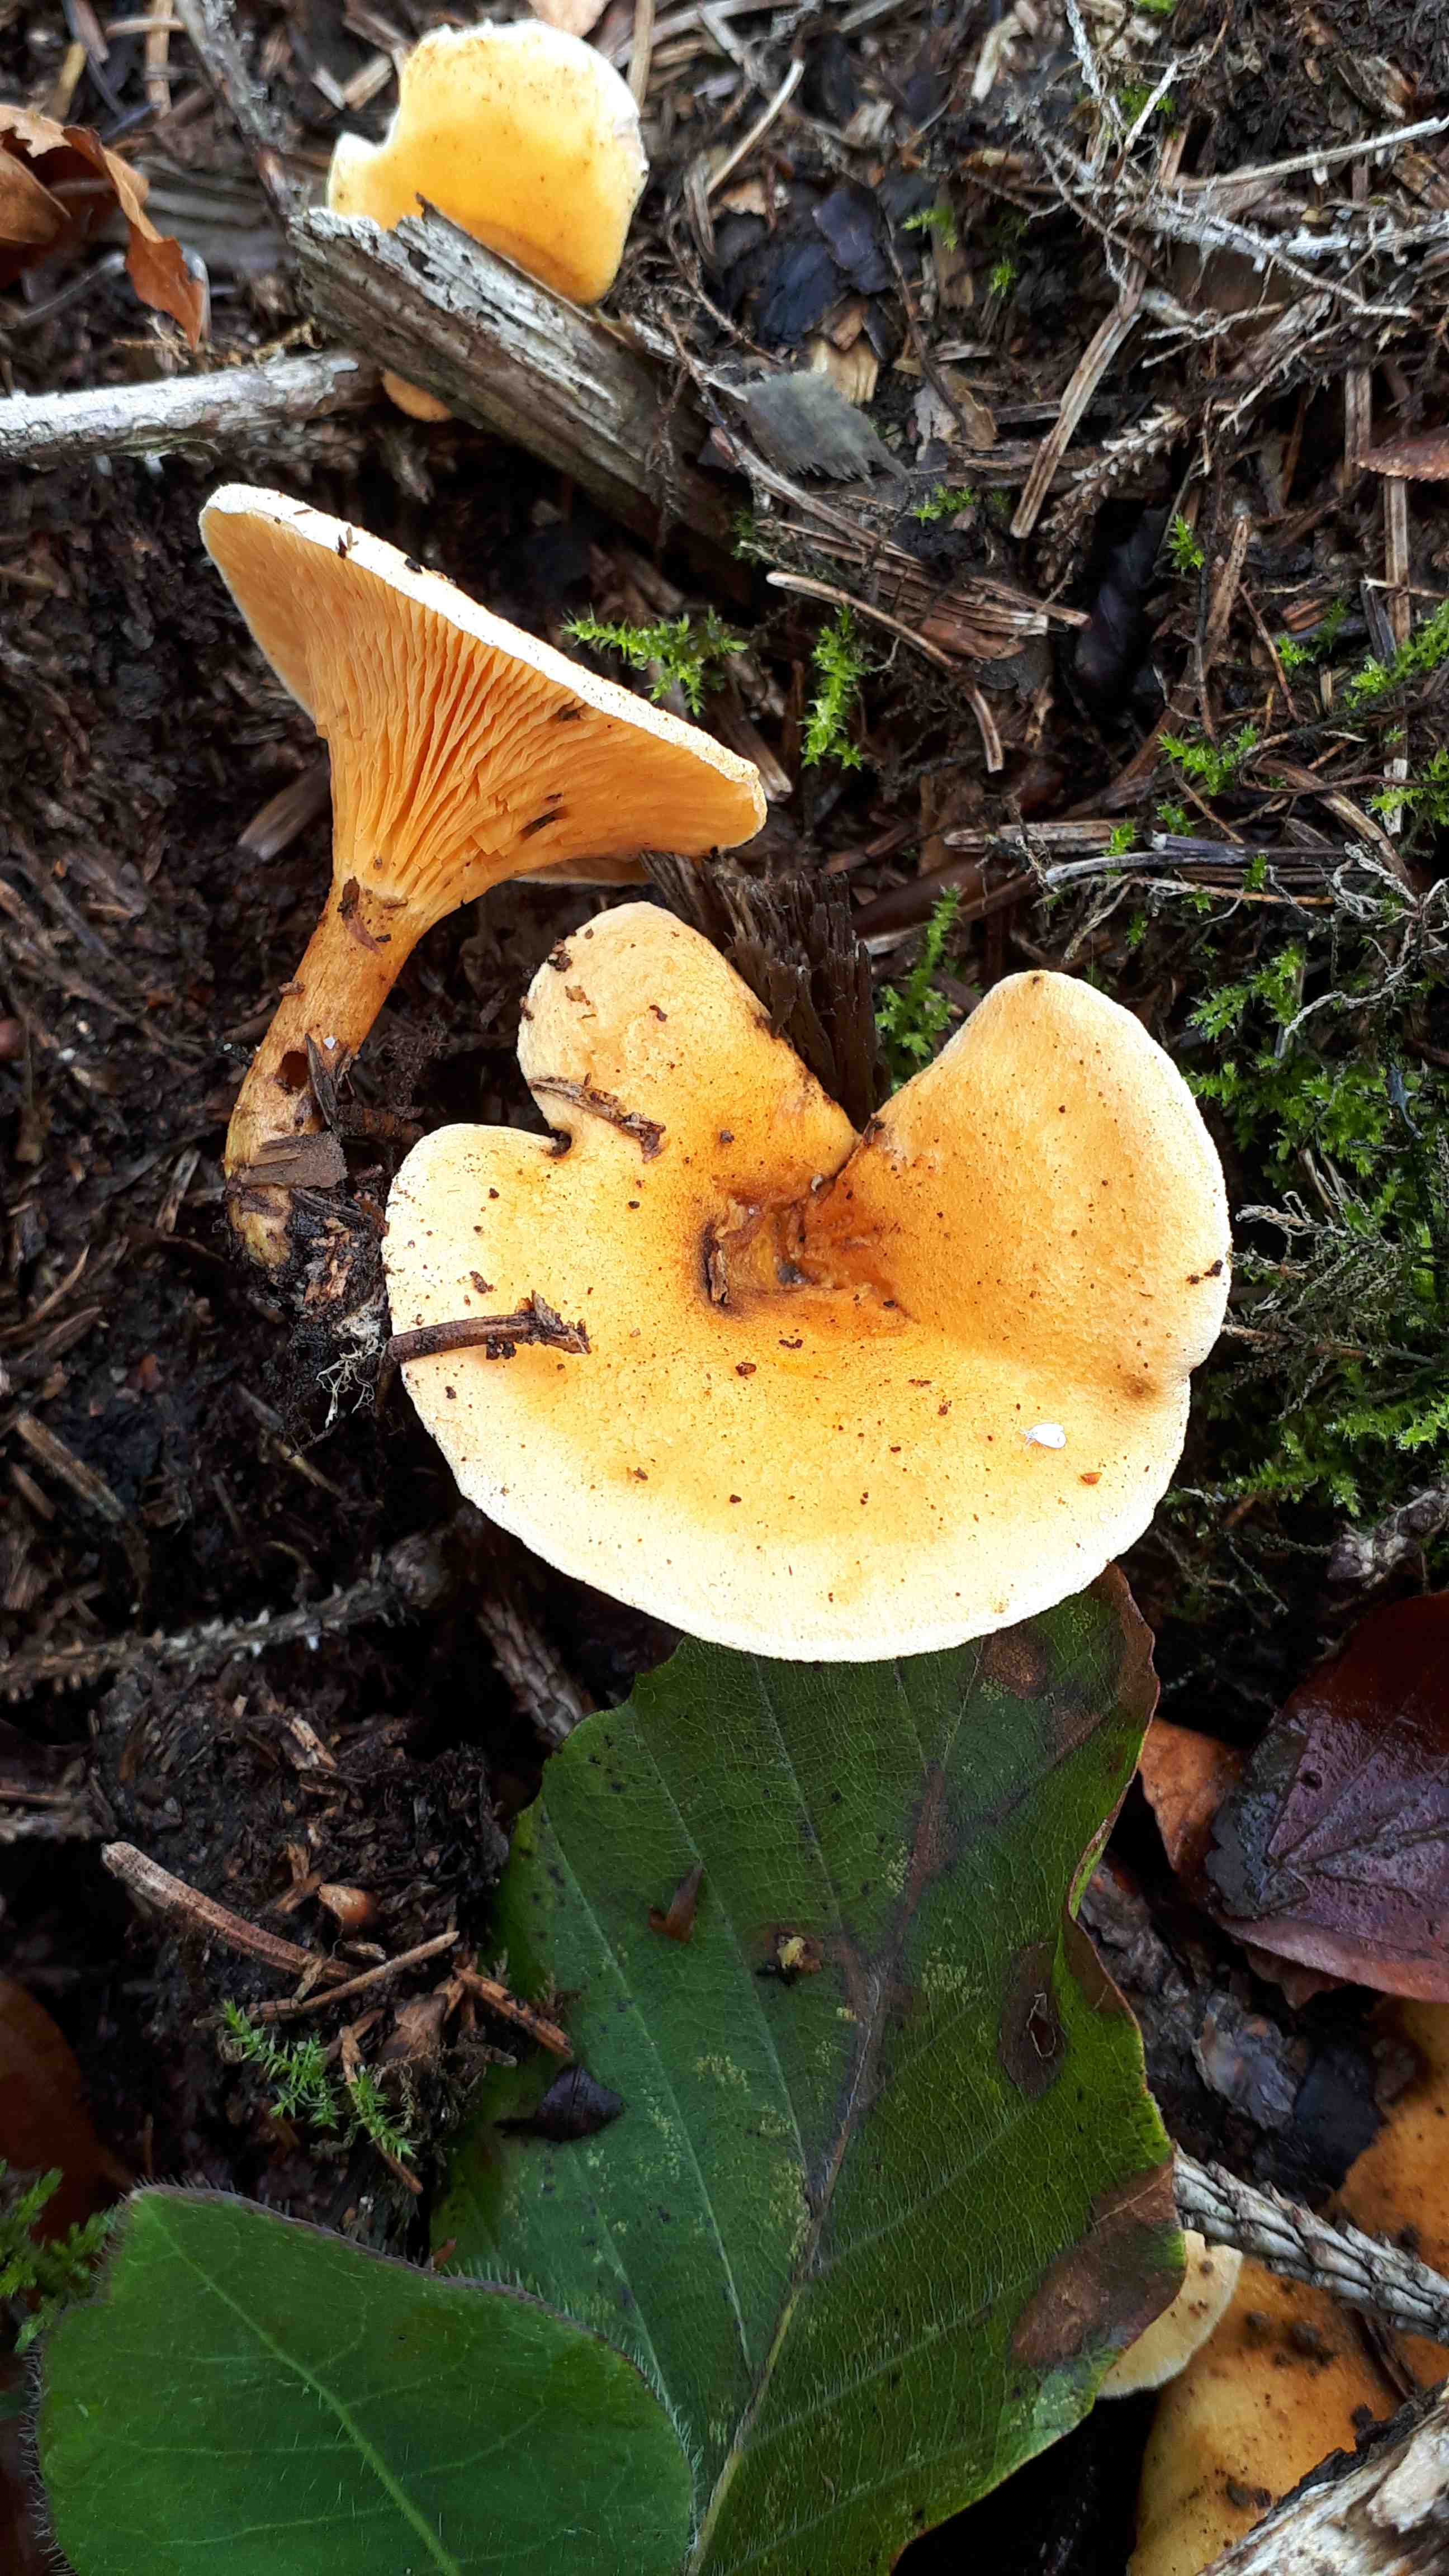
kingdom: Fungi
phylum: Basidiomycota
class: Agaricomycetes
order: Boletales
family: Hygrophoropsidaceae
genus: Hygrophoropsis
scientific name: Hygrophoropsis aurantiaca
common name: almindelig orangekantarel
